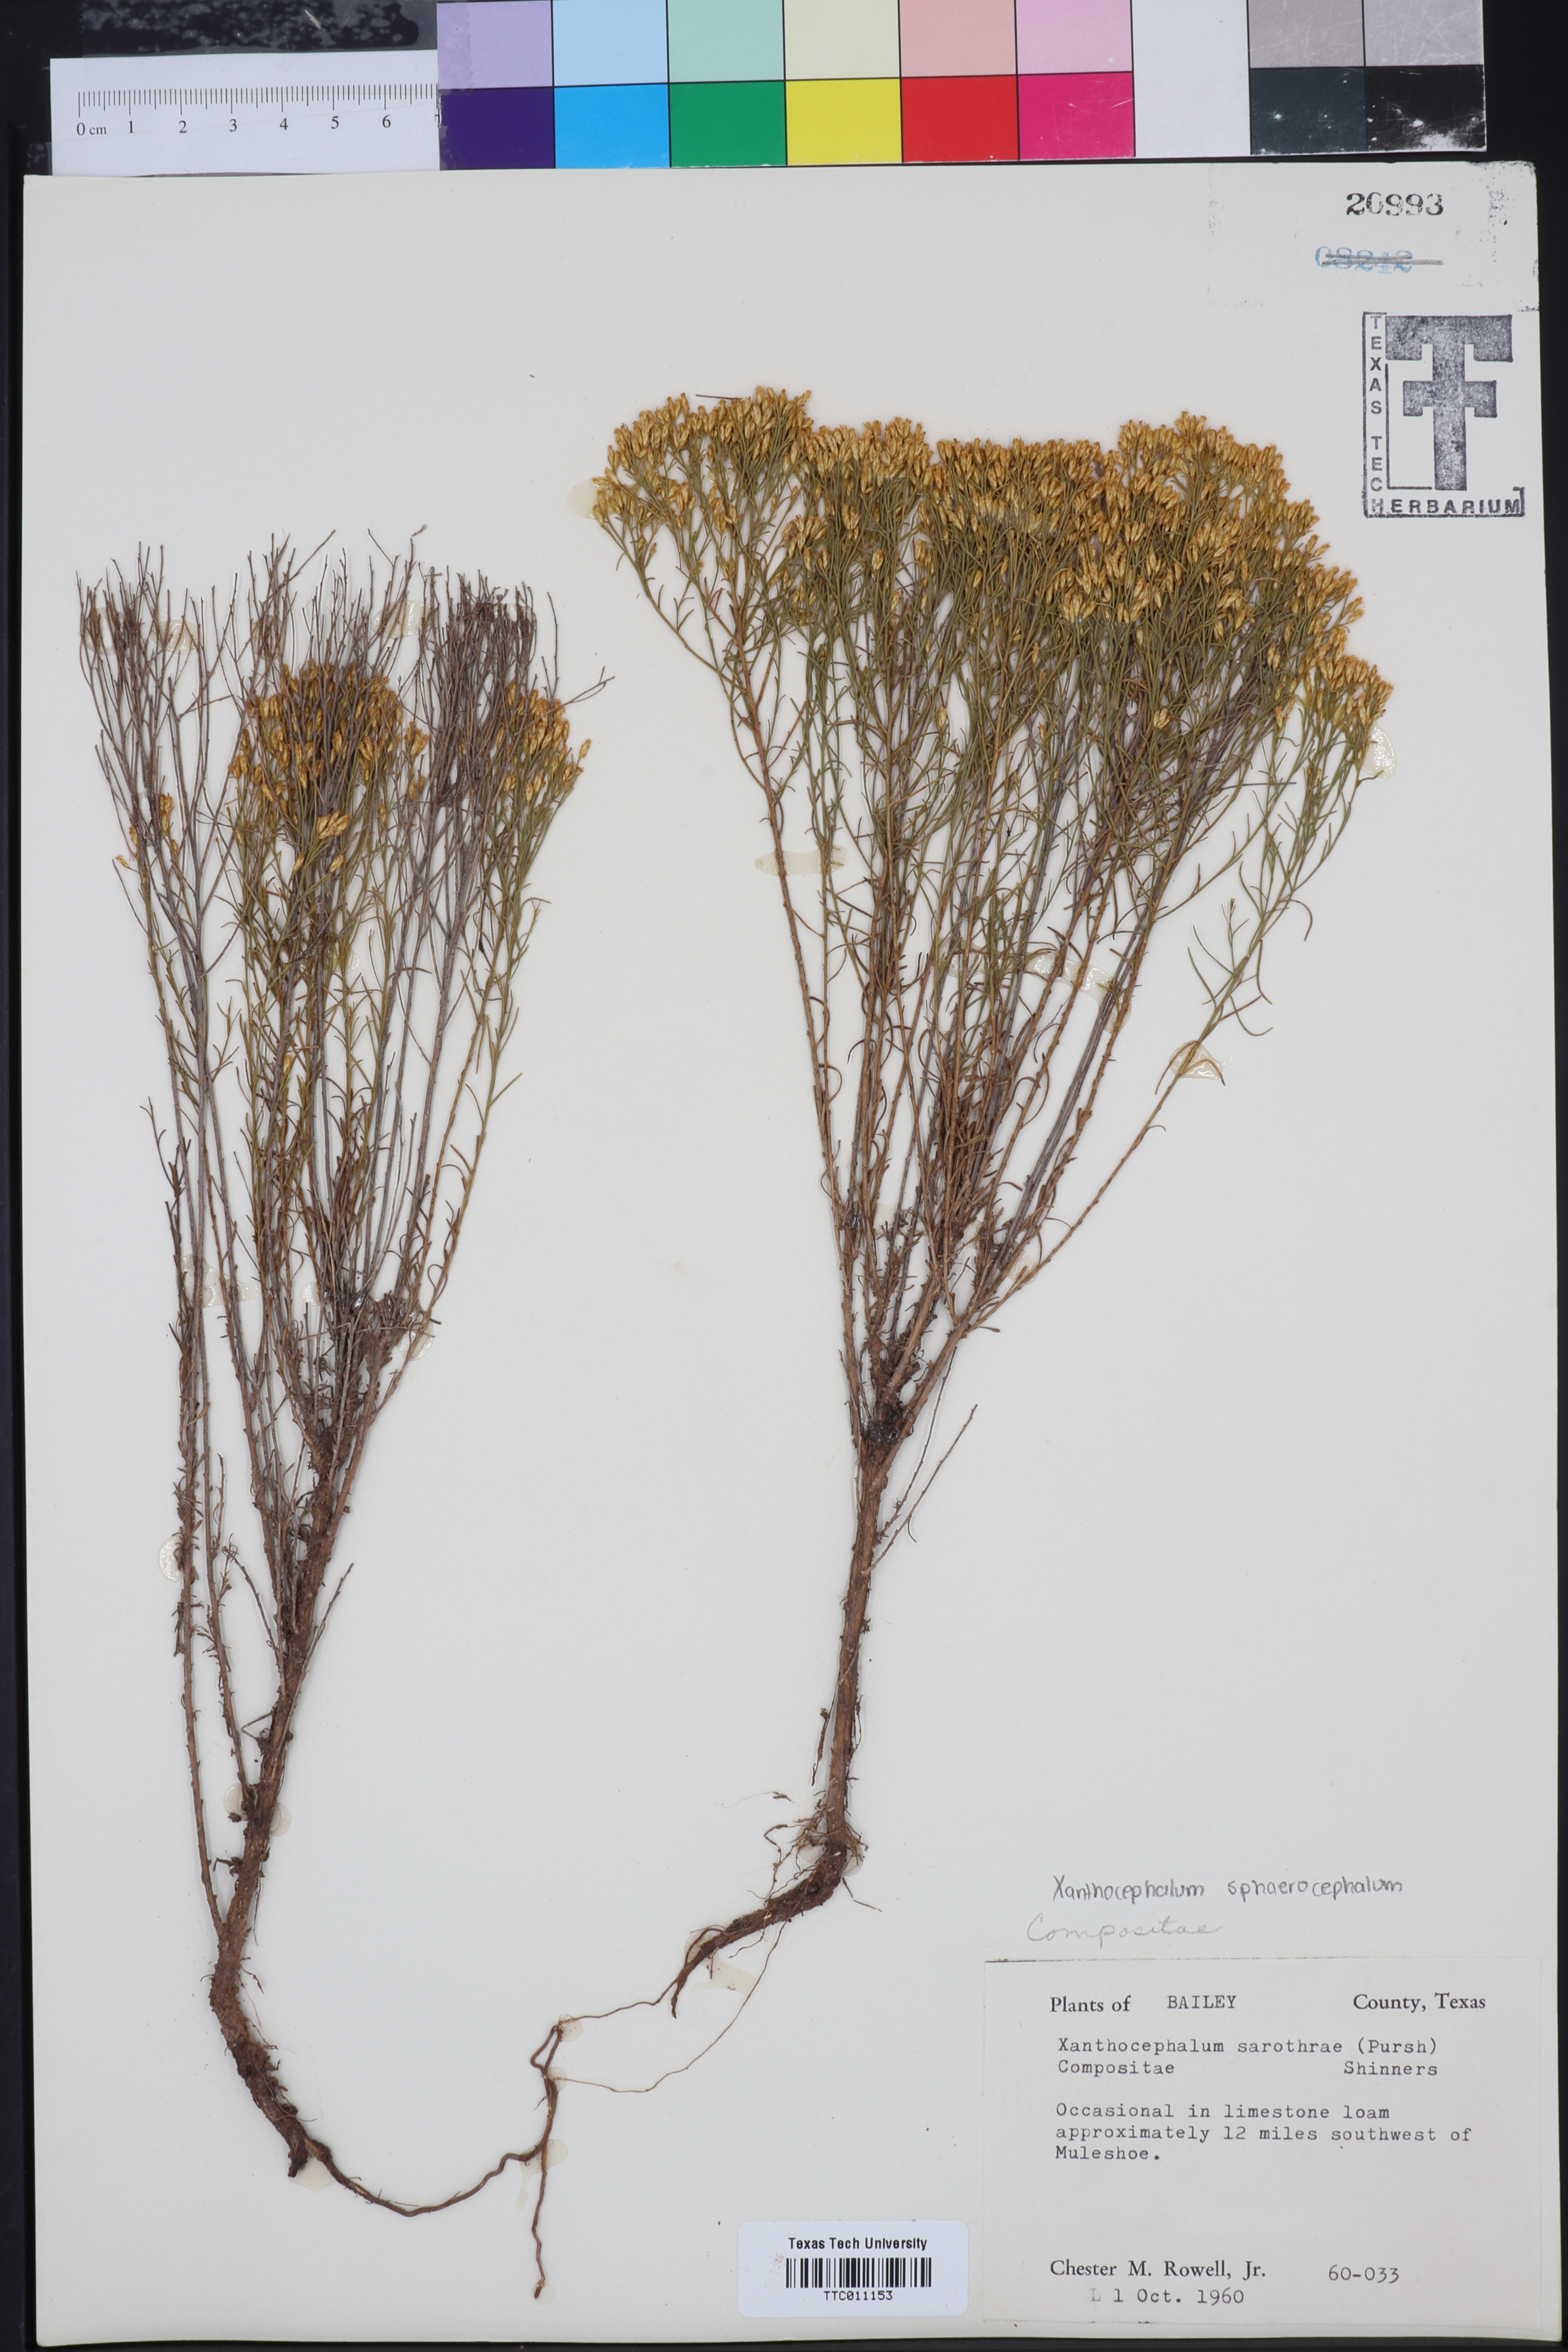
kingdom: Plantae
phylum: Tracheophyta
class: Magnoliopsida
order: Asterales
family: Asteraceae
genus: Gutierrezia
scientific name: Gutierrezia sarothrae
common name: Broom snakeweed
